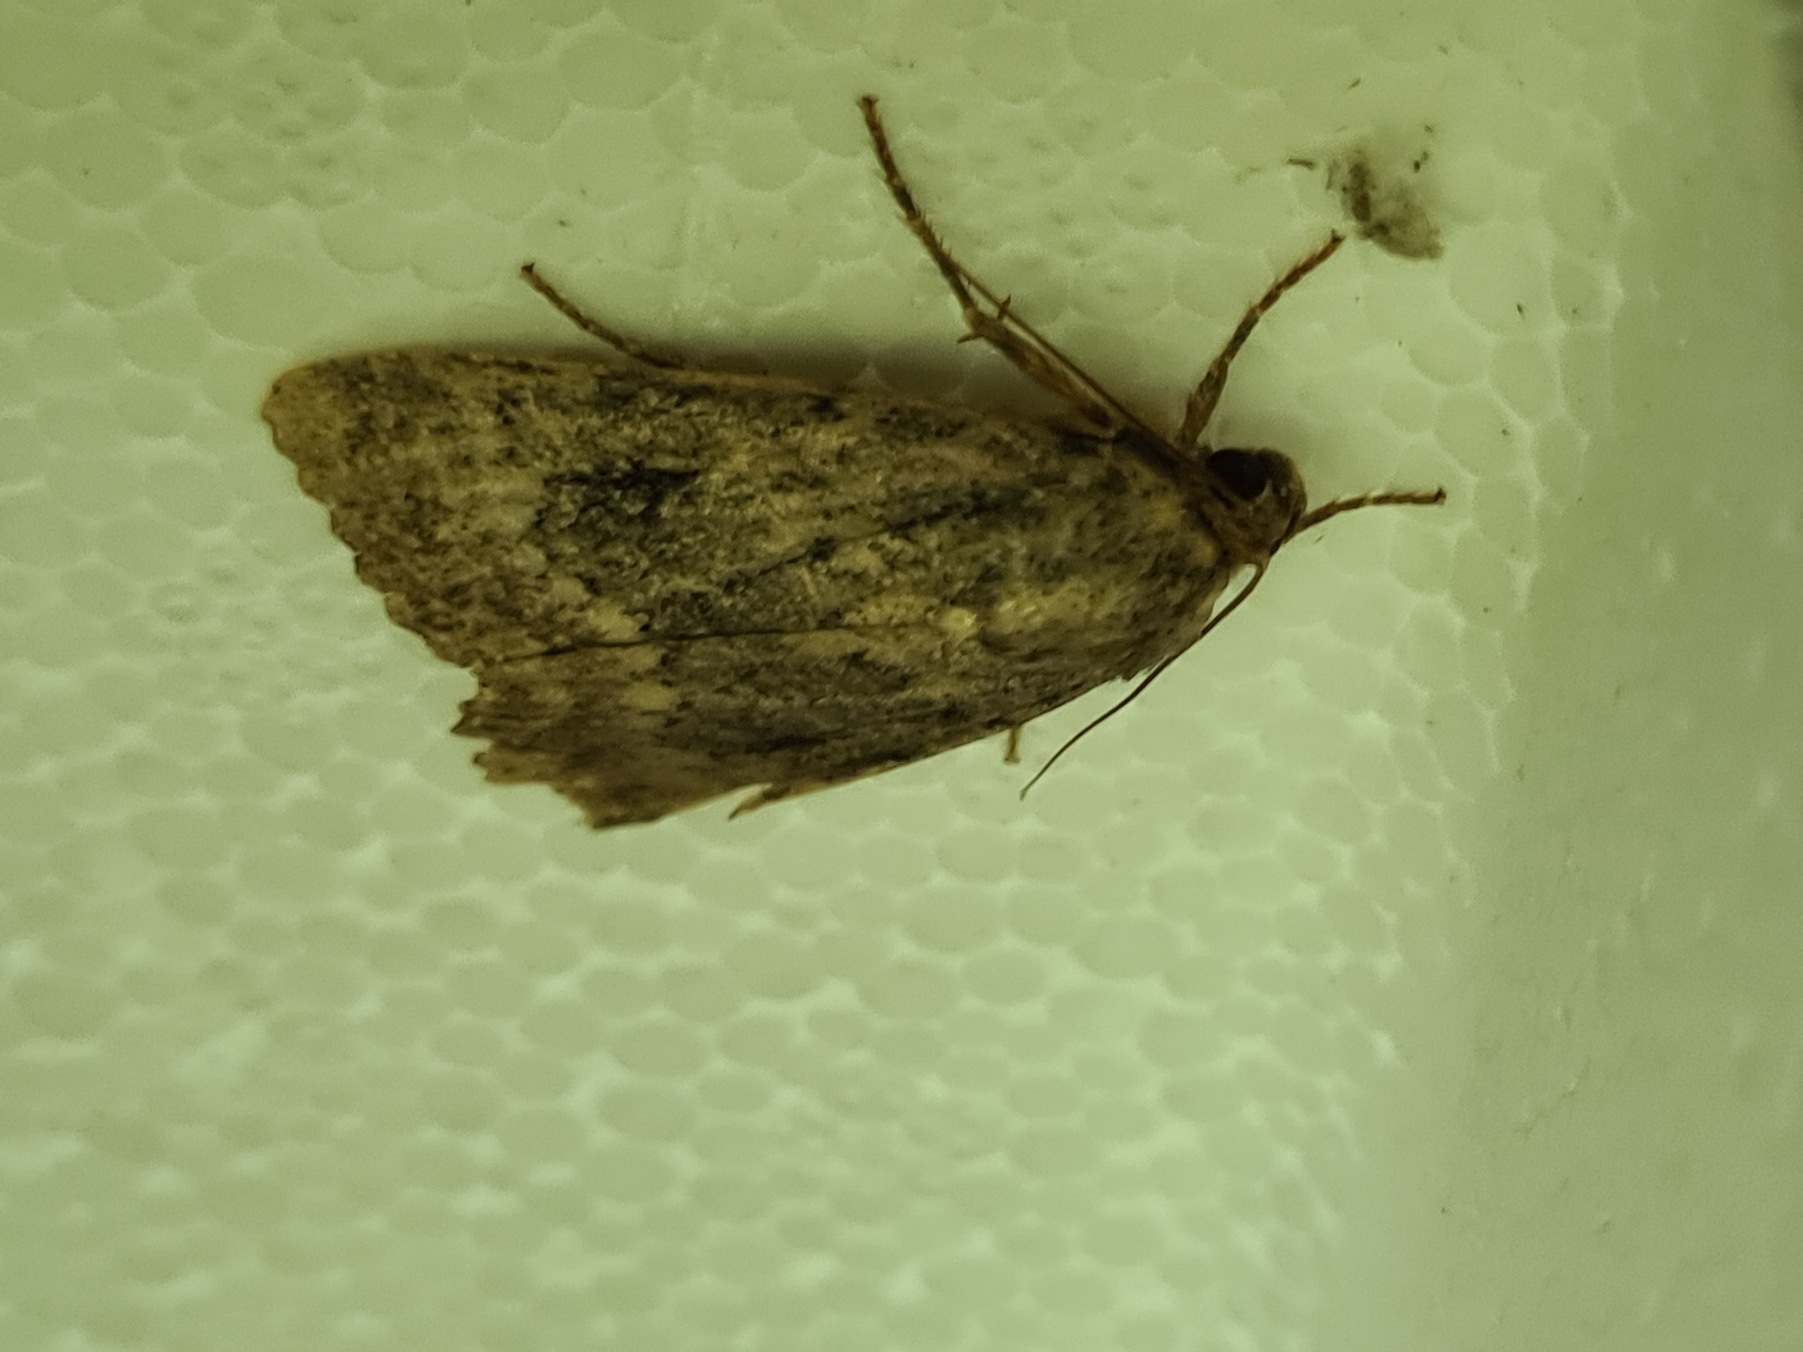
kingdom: Animalia
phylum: Arthropoda
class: Insecta
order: Lepidoptera
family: Noctuidae
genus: Amphipyra
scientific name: Amphipyra pyramidea
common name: Pyramideugle
